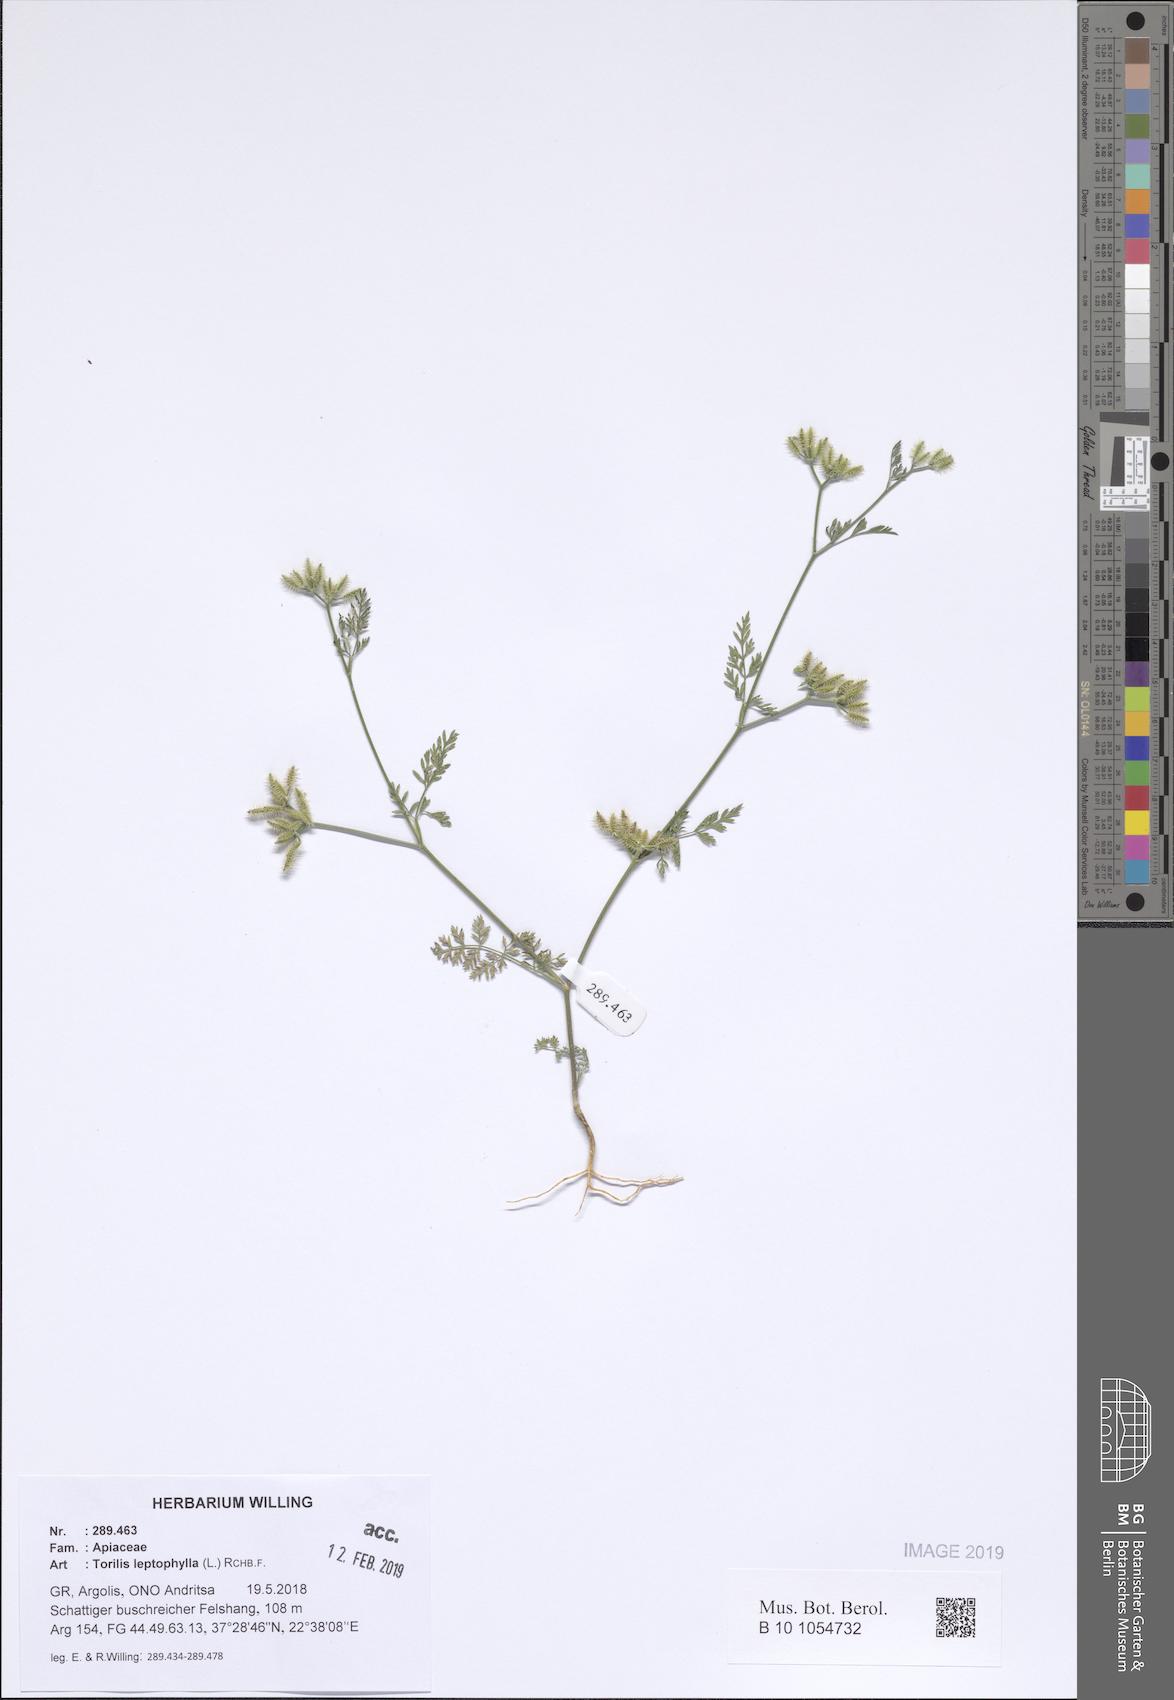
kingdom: Plantae
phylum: Tracheophyta
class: Magnoliopsida
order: Apiales
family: Apiaceae
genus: Torilis
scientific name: Torilis leptophylla
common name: Bristlefruit hedgeparsley
